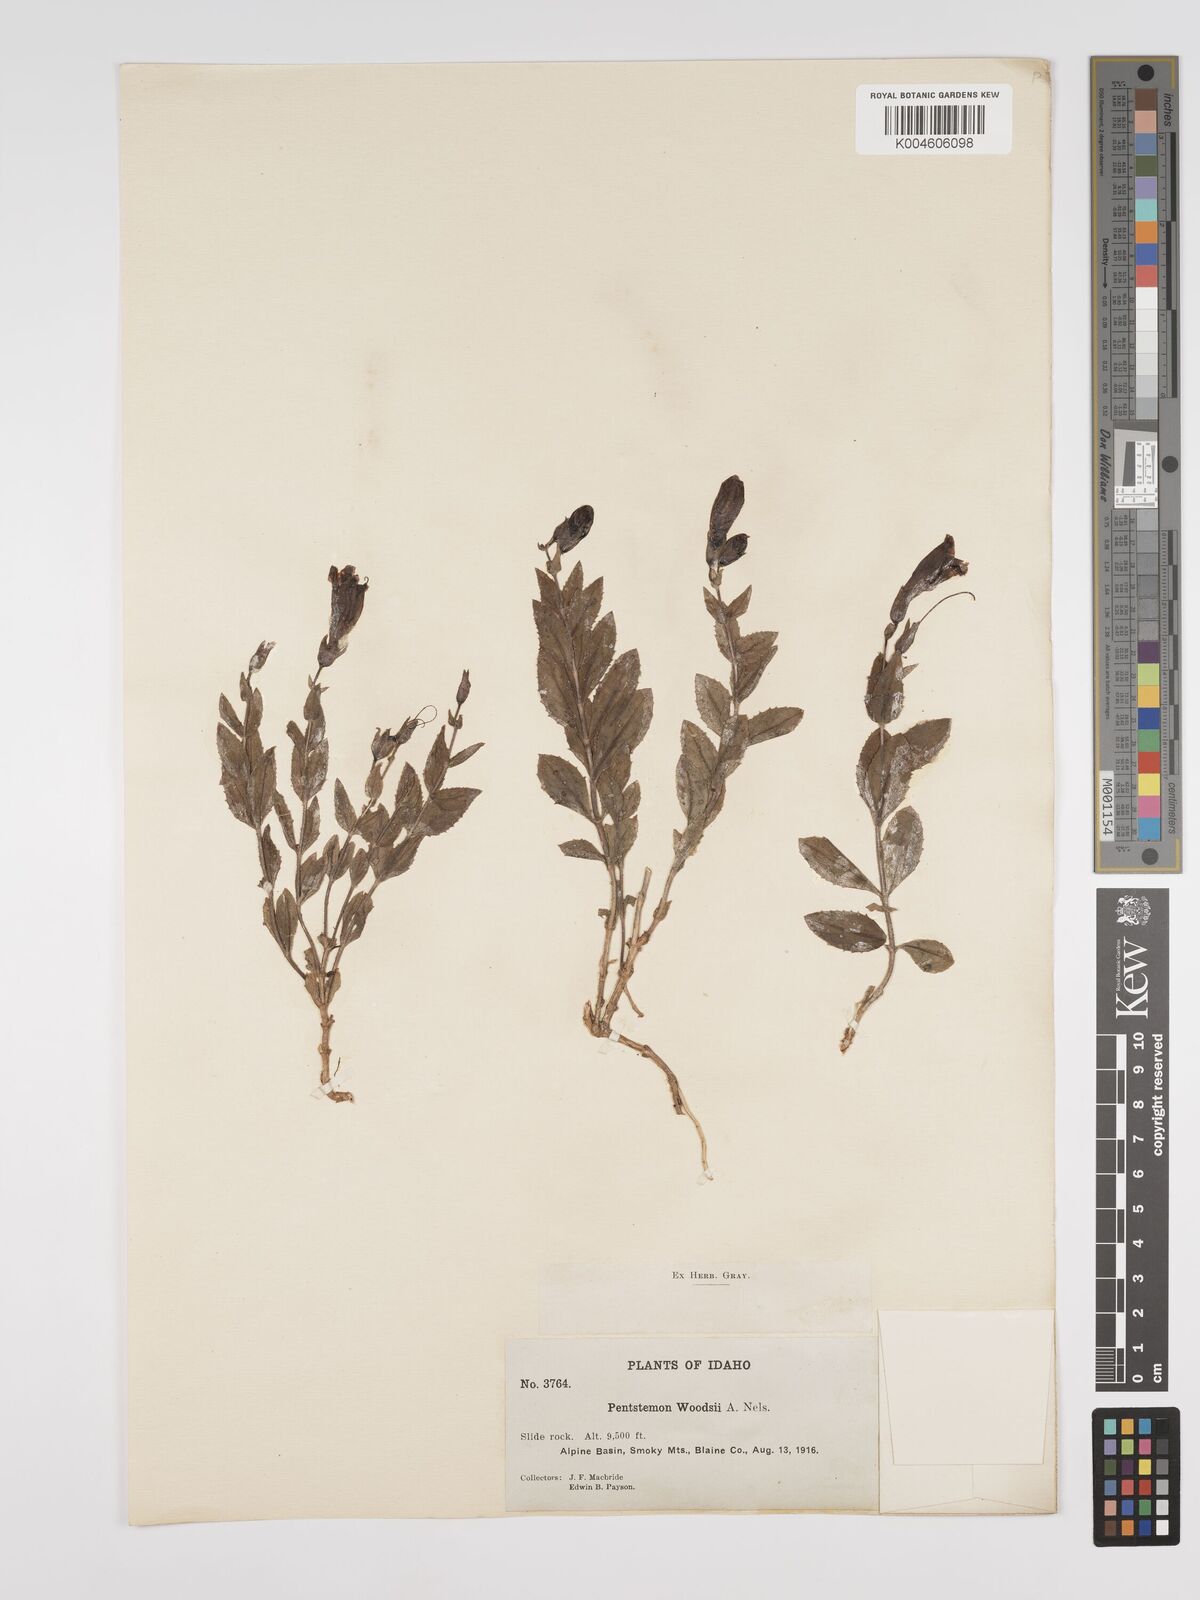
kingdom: Plantae
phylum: Tracheophyta
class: Magnoliopsida
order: Lamiales
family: Plantaginaceae
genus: Penstemon
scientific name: Penstemon montanus
